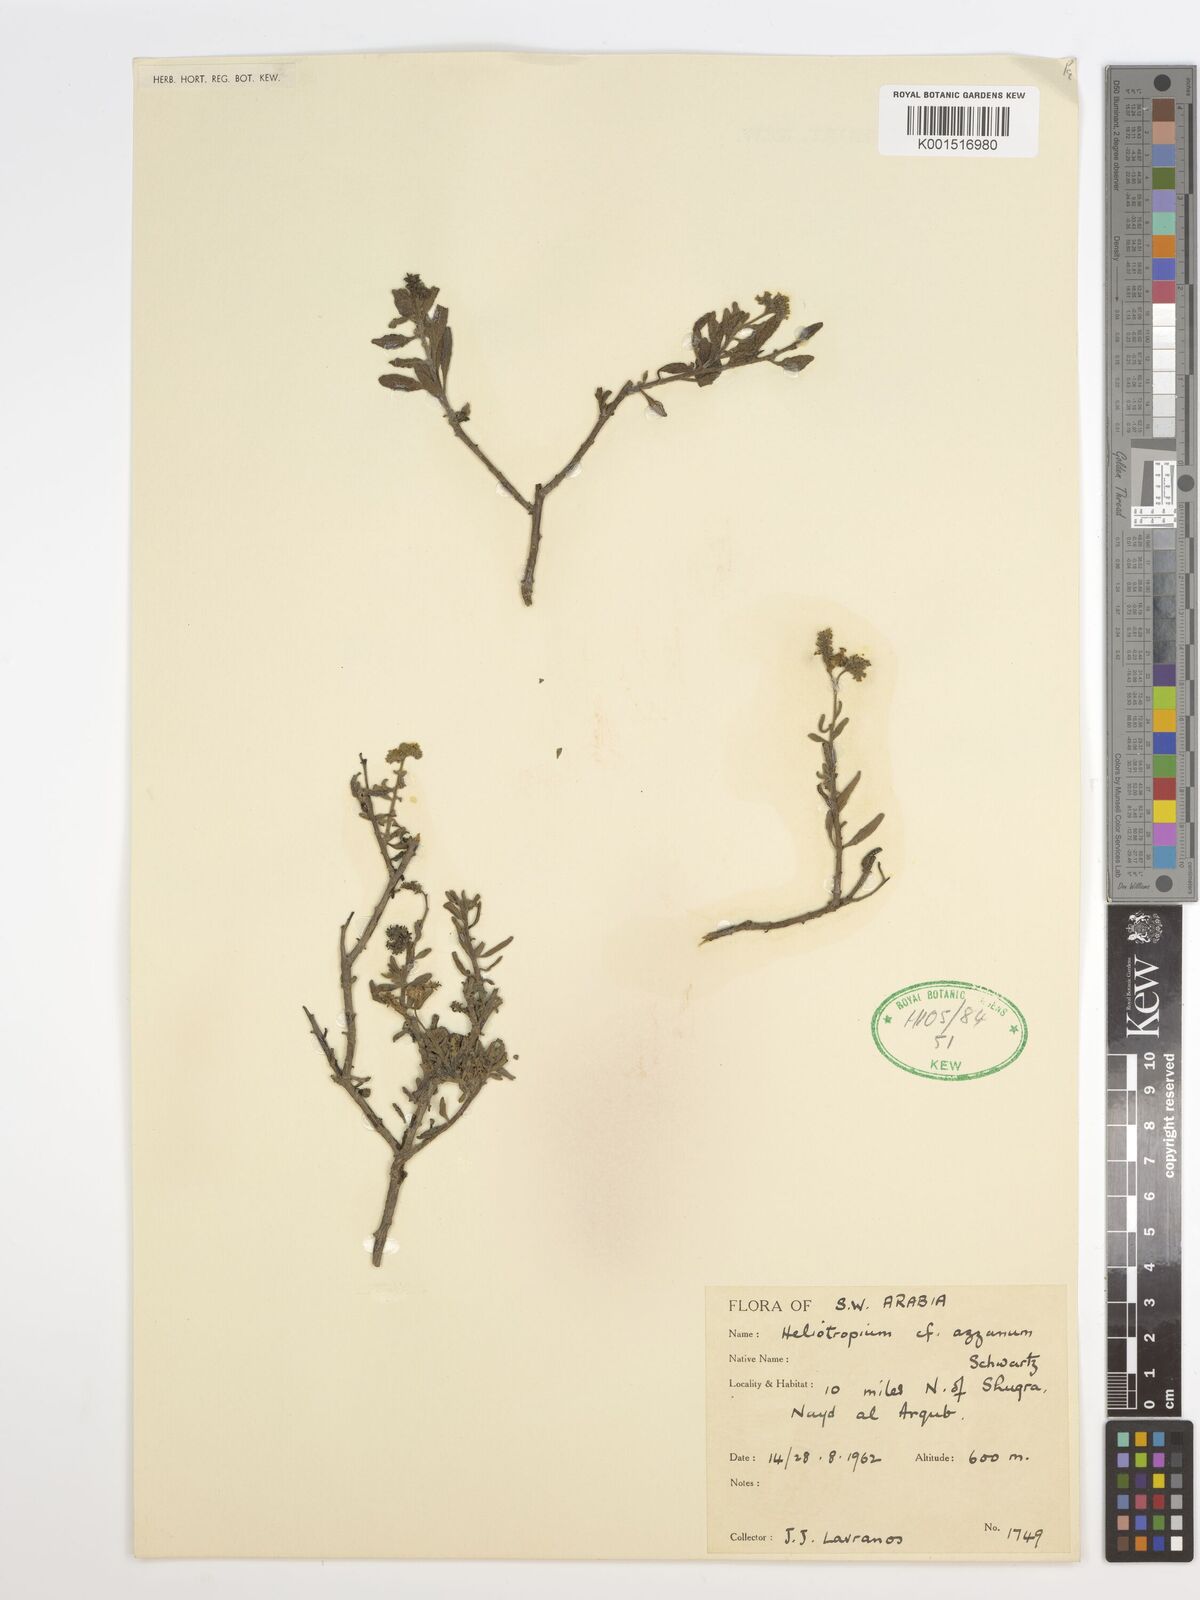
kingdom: Plantae
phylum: Tracheophyta
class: Magnoliopsida
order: Boraginales
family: Heliotropiaceae
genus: Heliotropium
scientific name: Heliotropium azzanum
